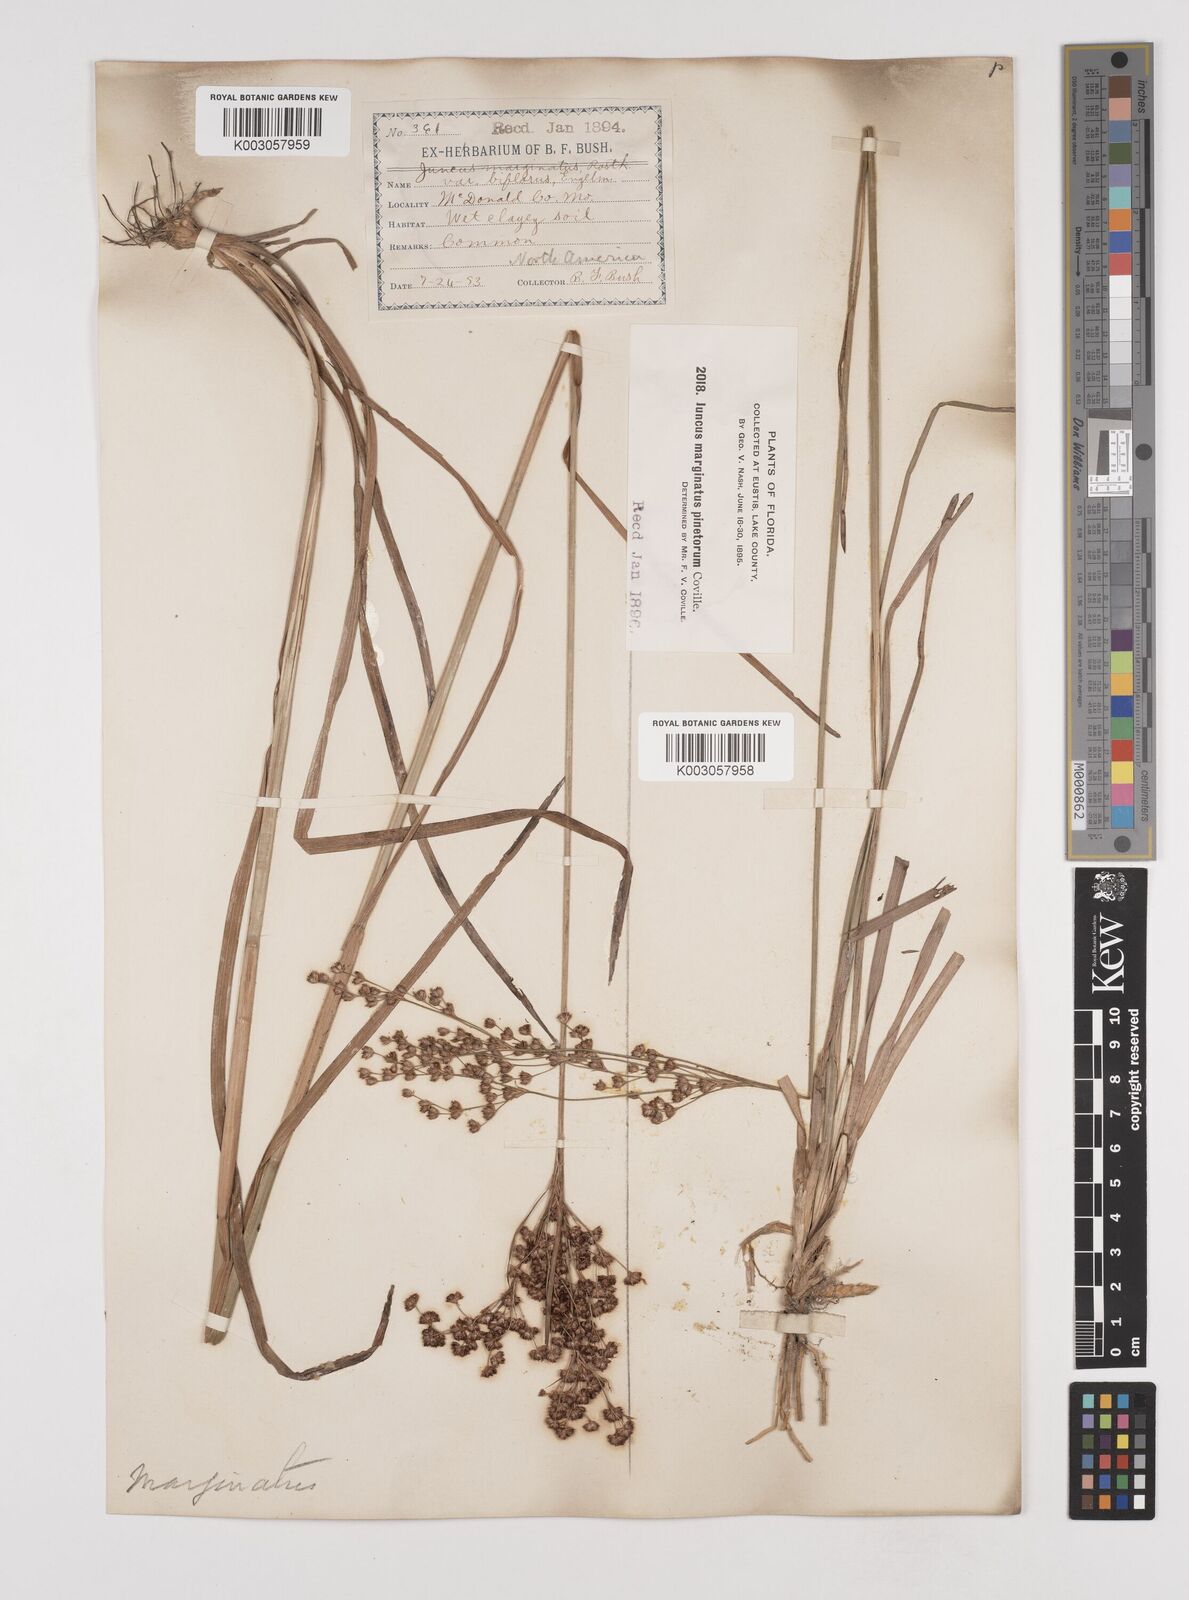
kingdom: Plantae
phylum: Tracheophyta
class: Liliopsida
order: Poales
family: Juncaceae
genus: Juncus
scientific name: Juncus marginatus
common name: Grass-leaf rush
